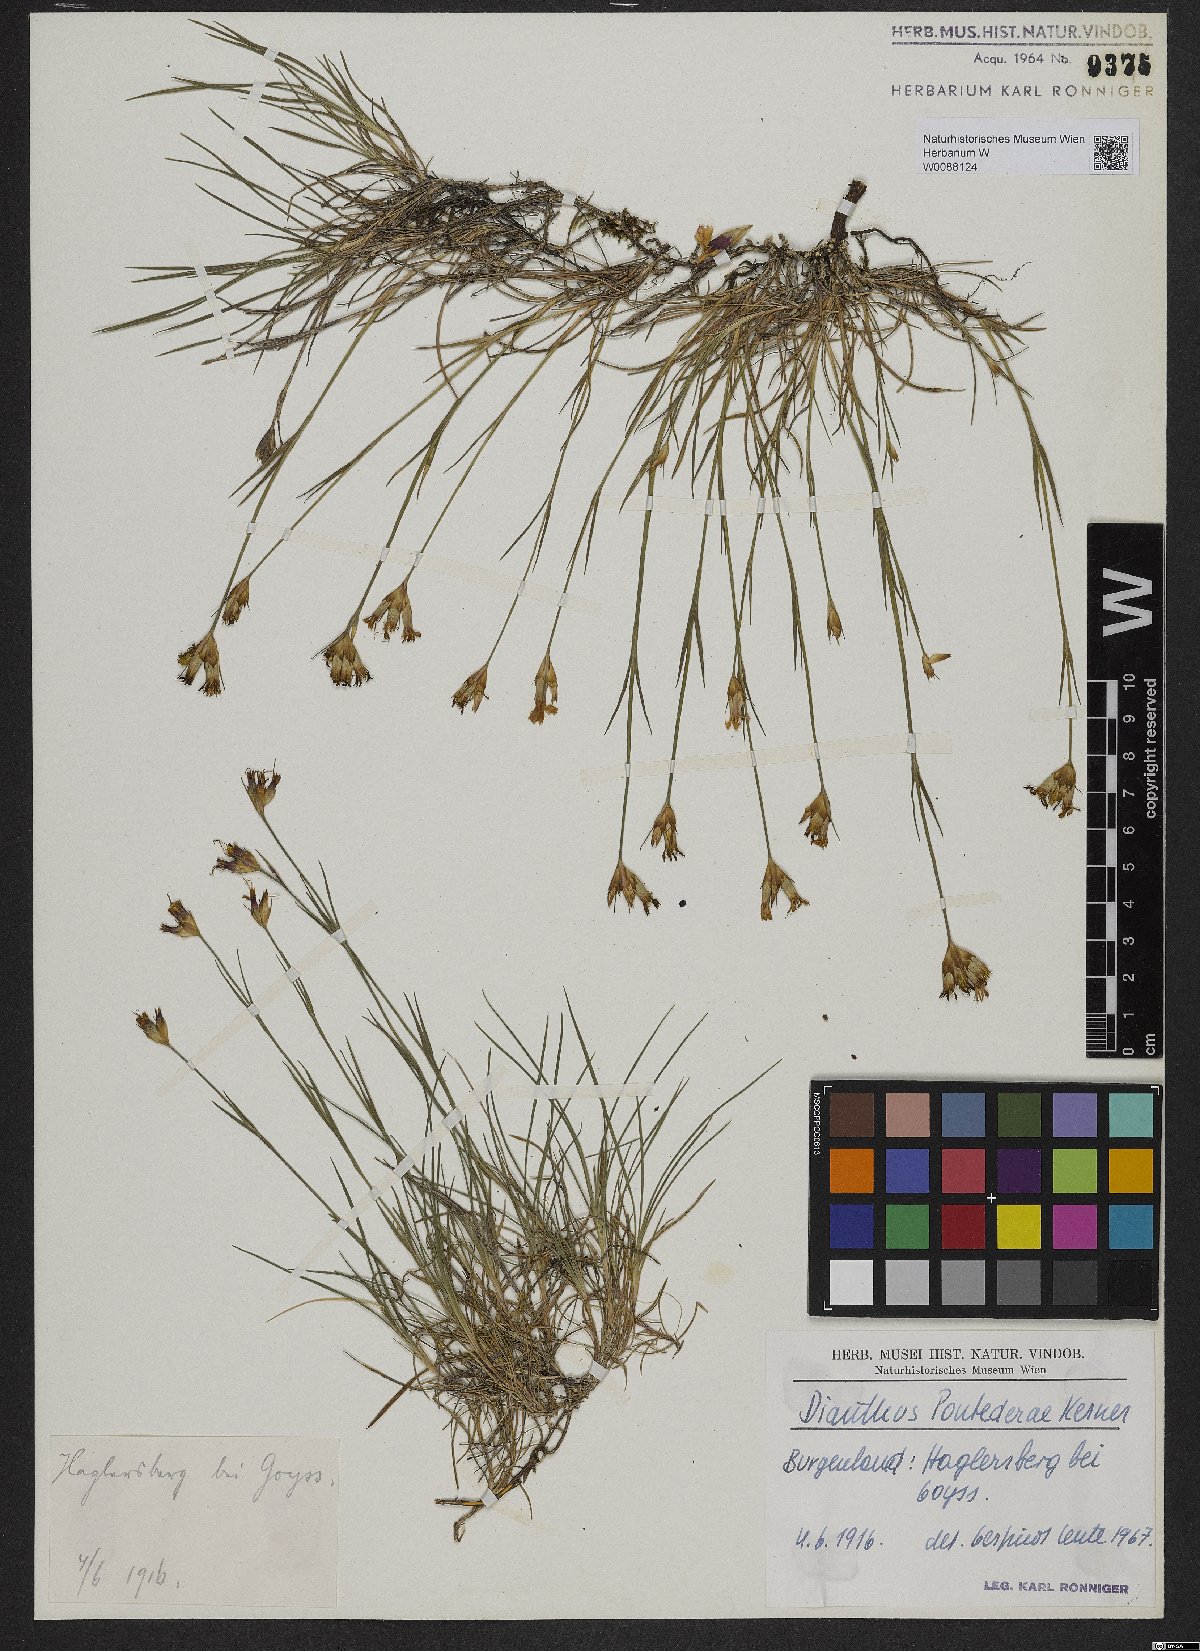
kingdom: Plantae
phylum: Tracheophyta
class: Magnoliopsida
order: Caryophyllales
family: Caryophyllaceae
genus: Dianthus
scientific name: Dianthus pontederae
